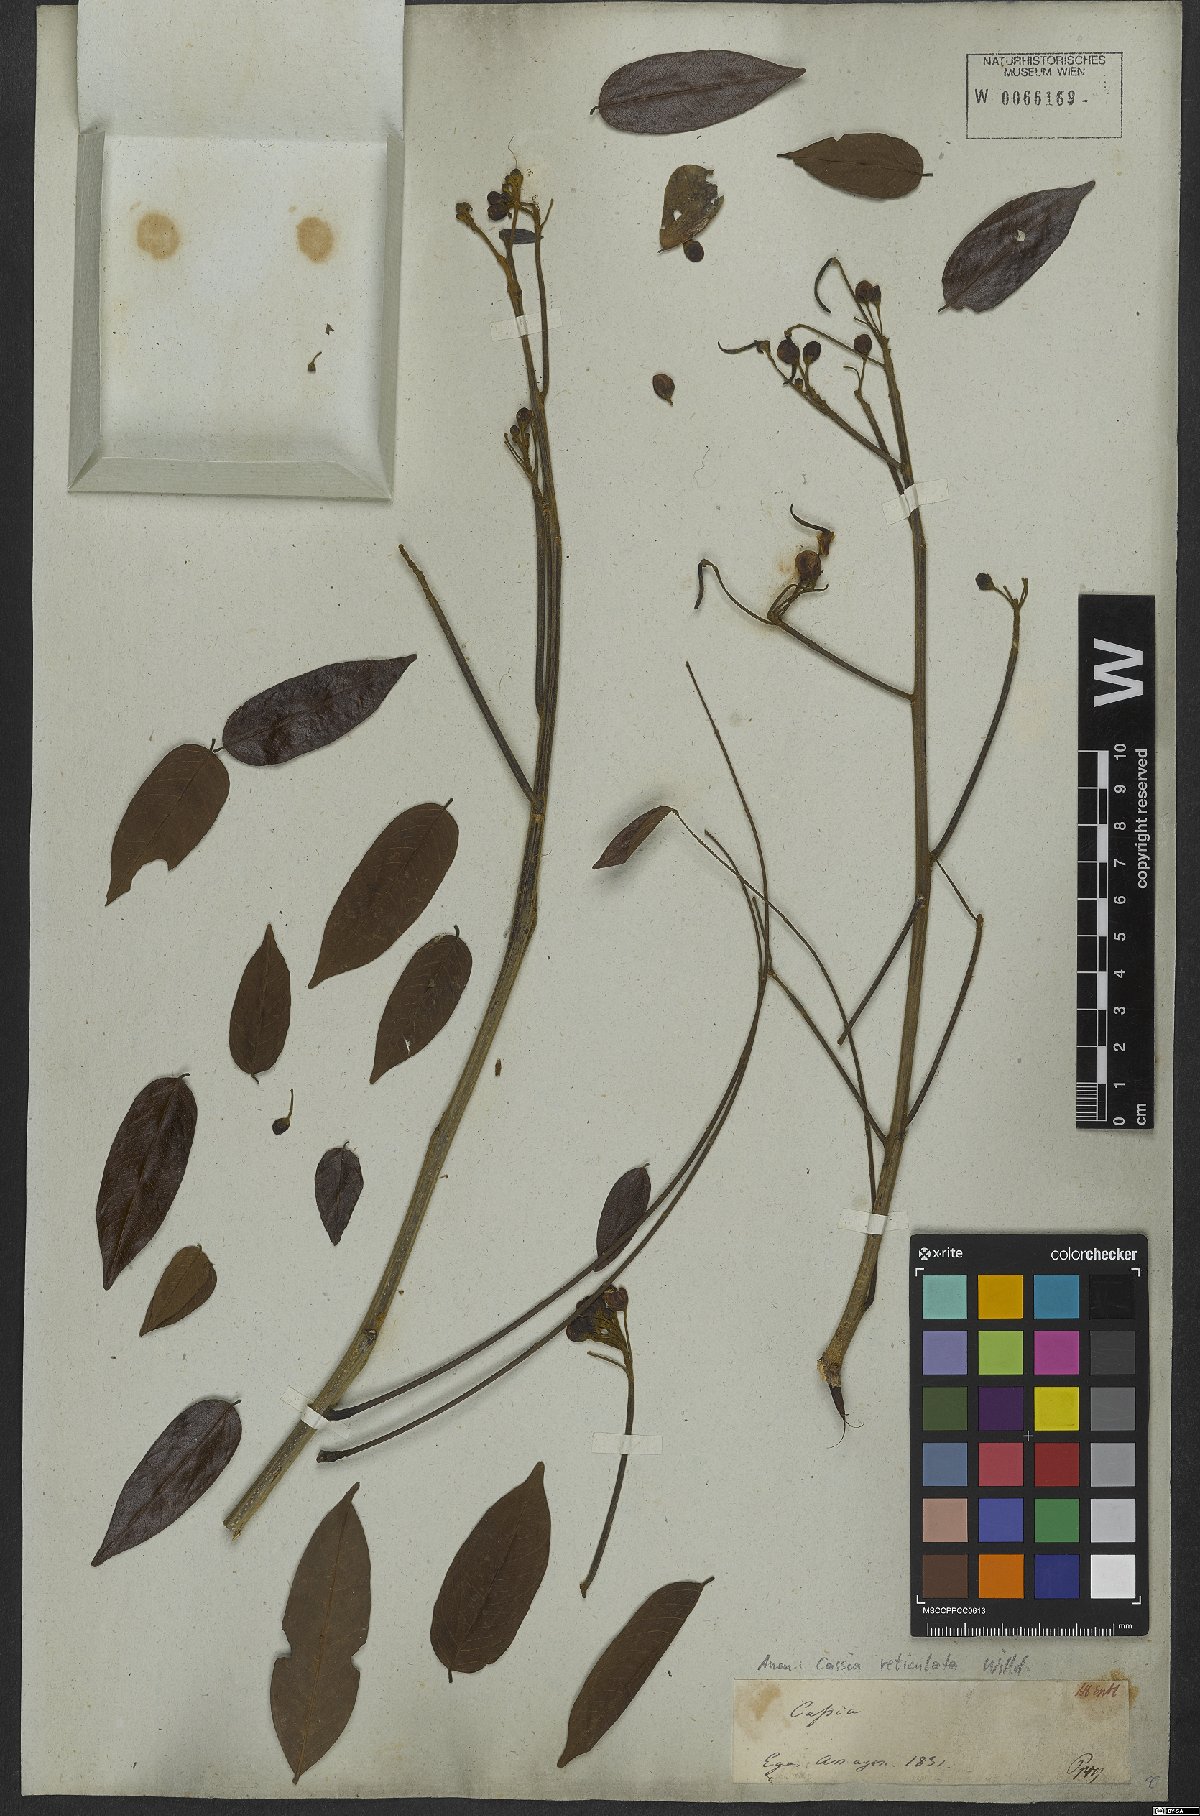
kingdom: Plantae
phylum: Tracheophyta
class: Magnoliopsida
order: Fabales
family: Fabaceae
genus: Senna
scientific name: Senna reticulata
